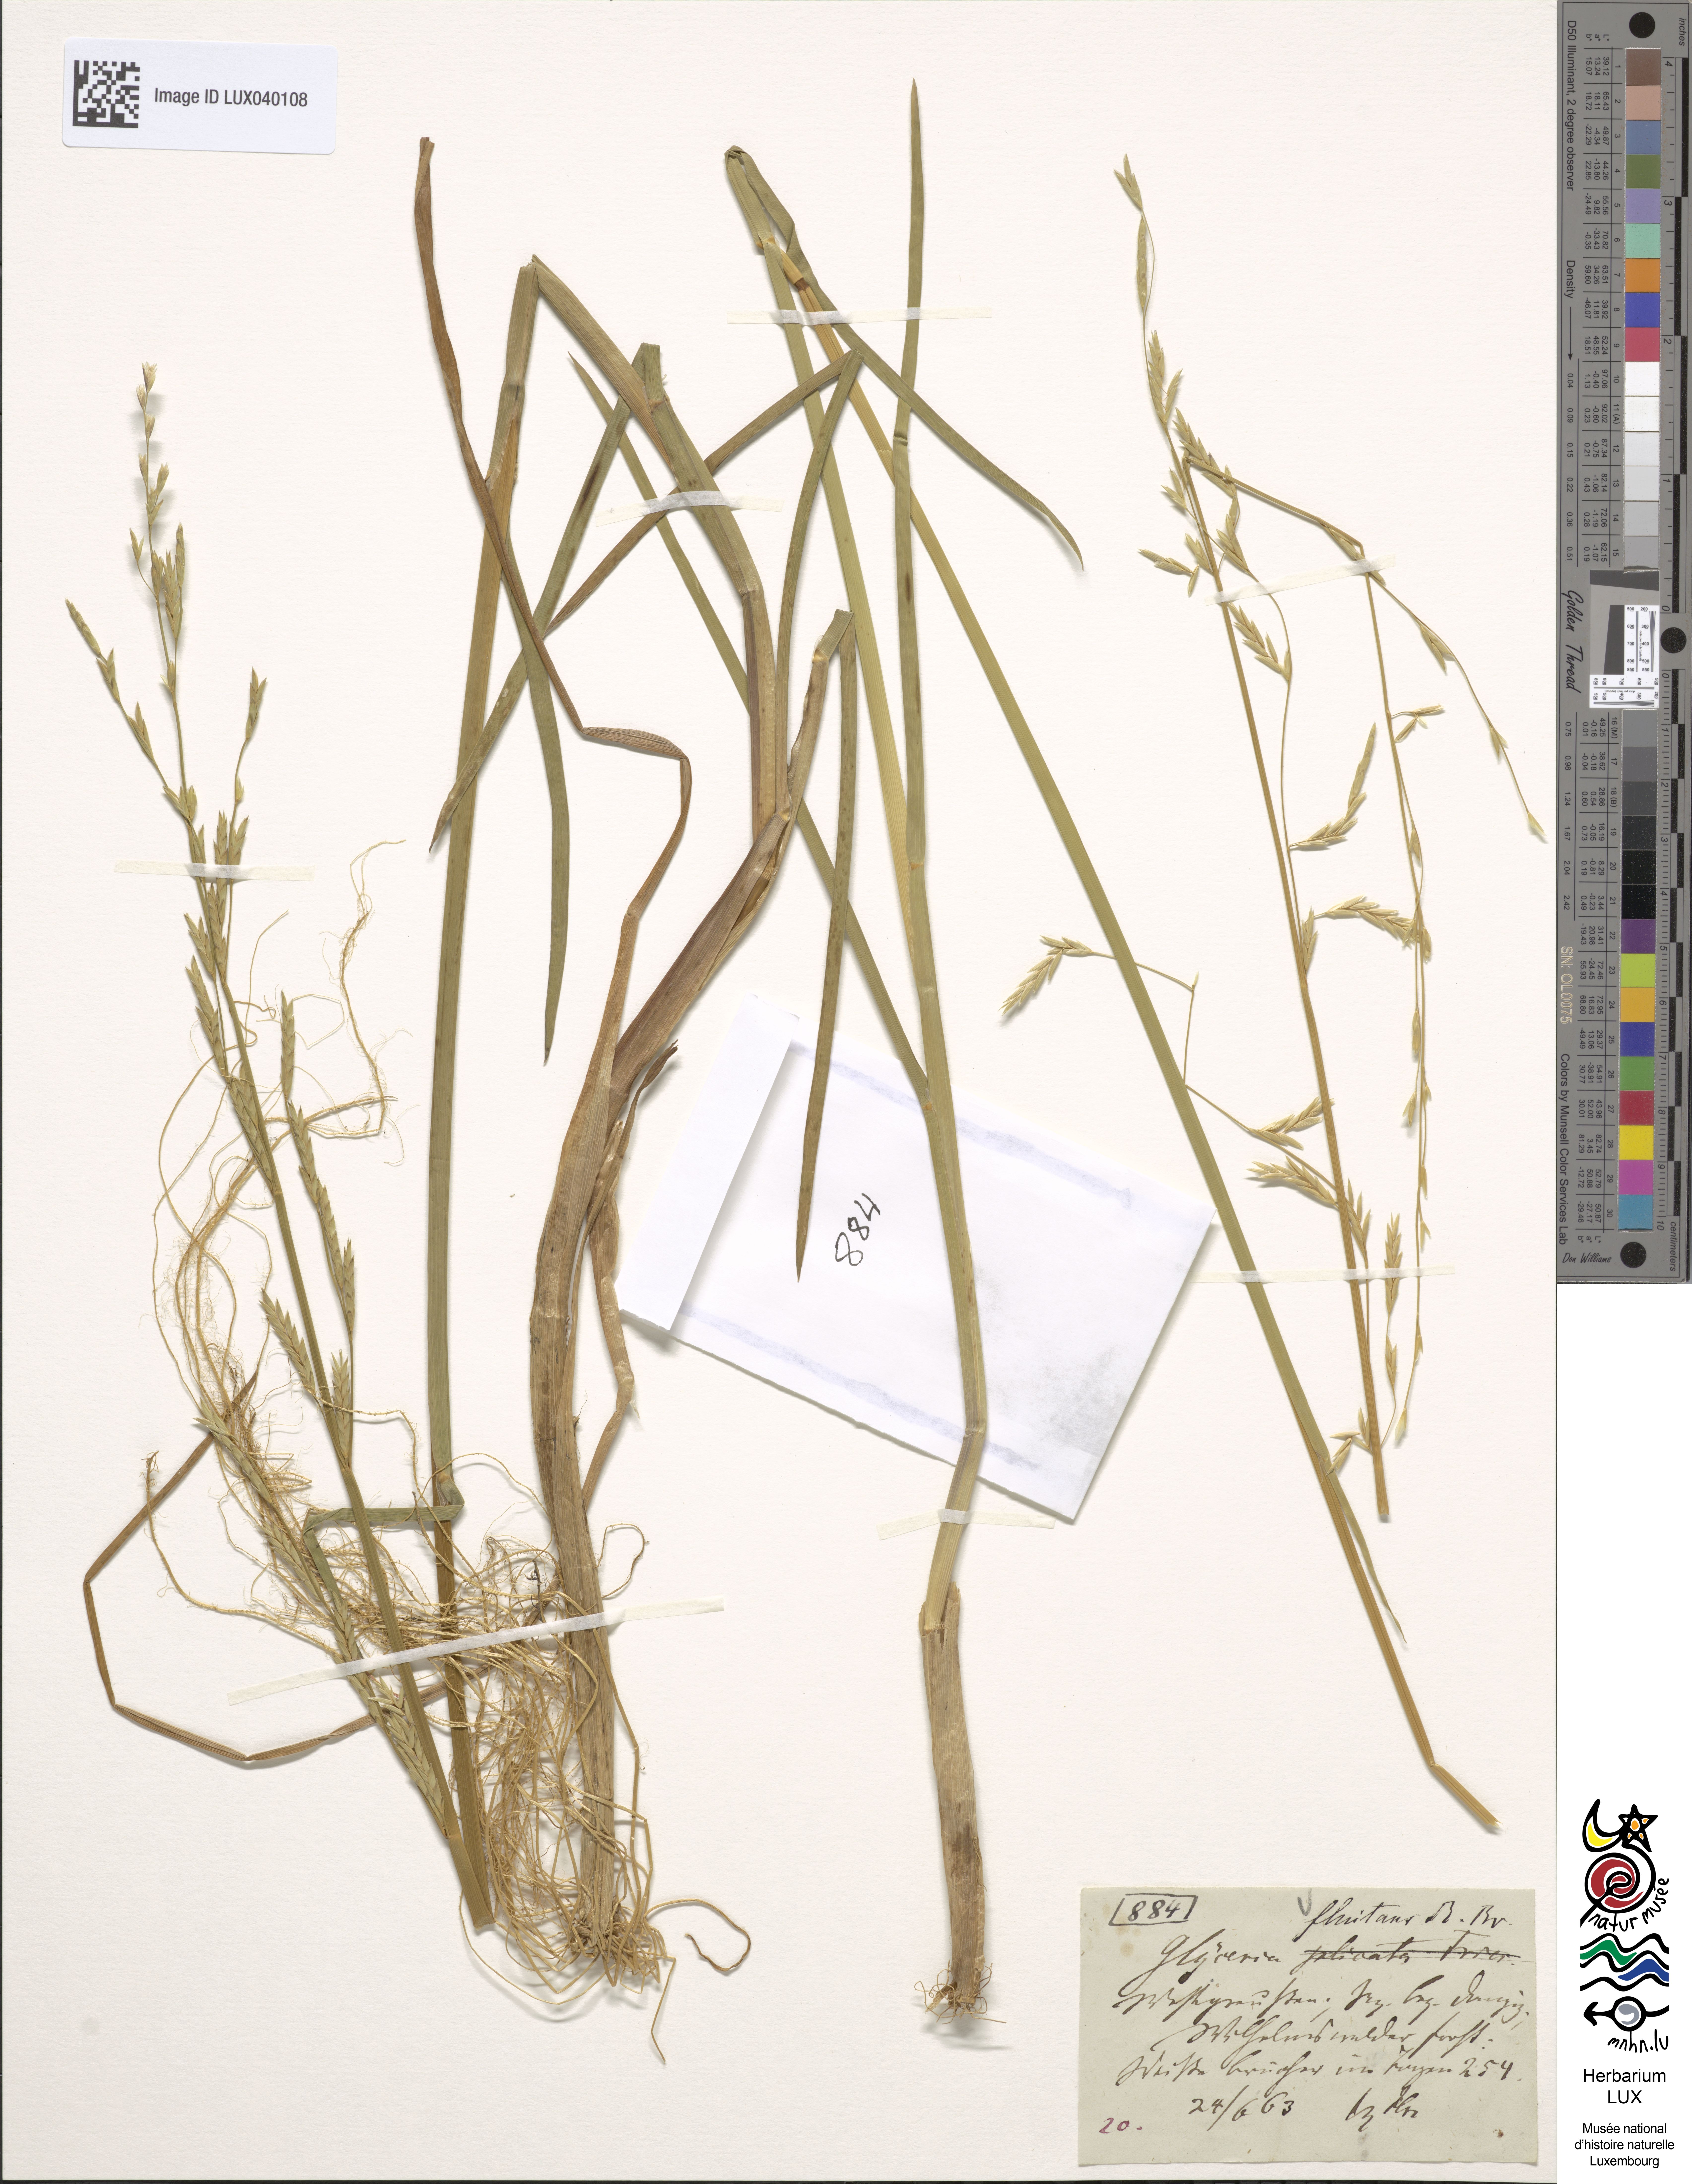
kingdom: Plantae
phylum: Tracheophyta
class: Liliopsida
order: Poales
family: Poaceae
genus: Glyceria
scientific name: Glyceria fluitans
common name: Floating sweet-grass
